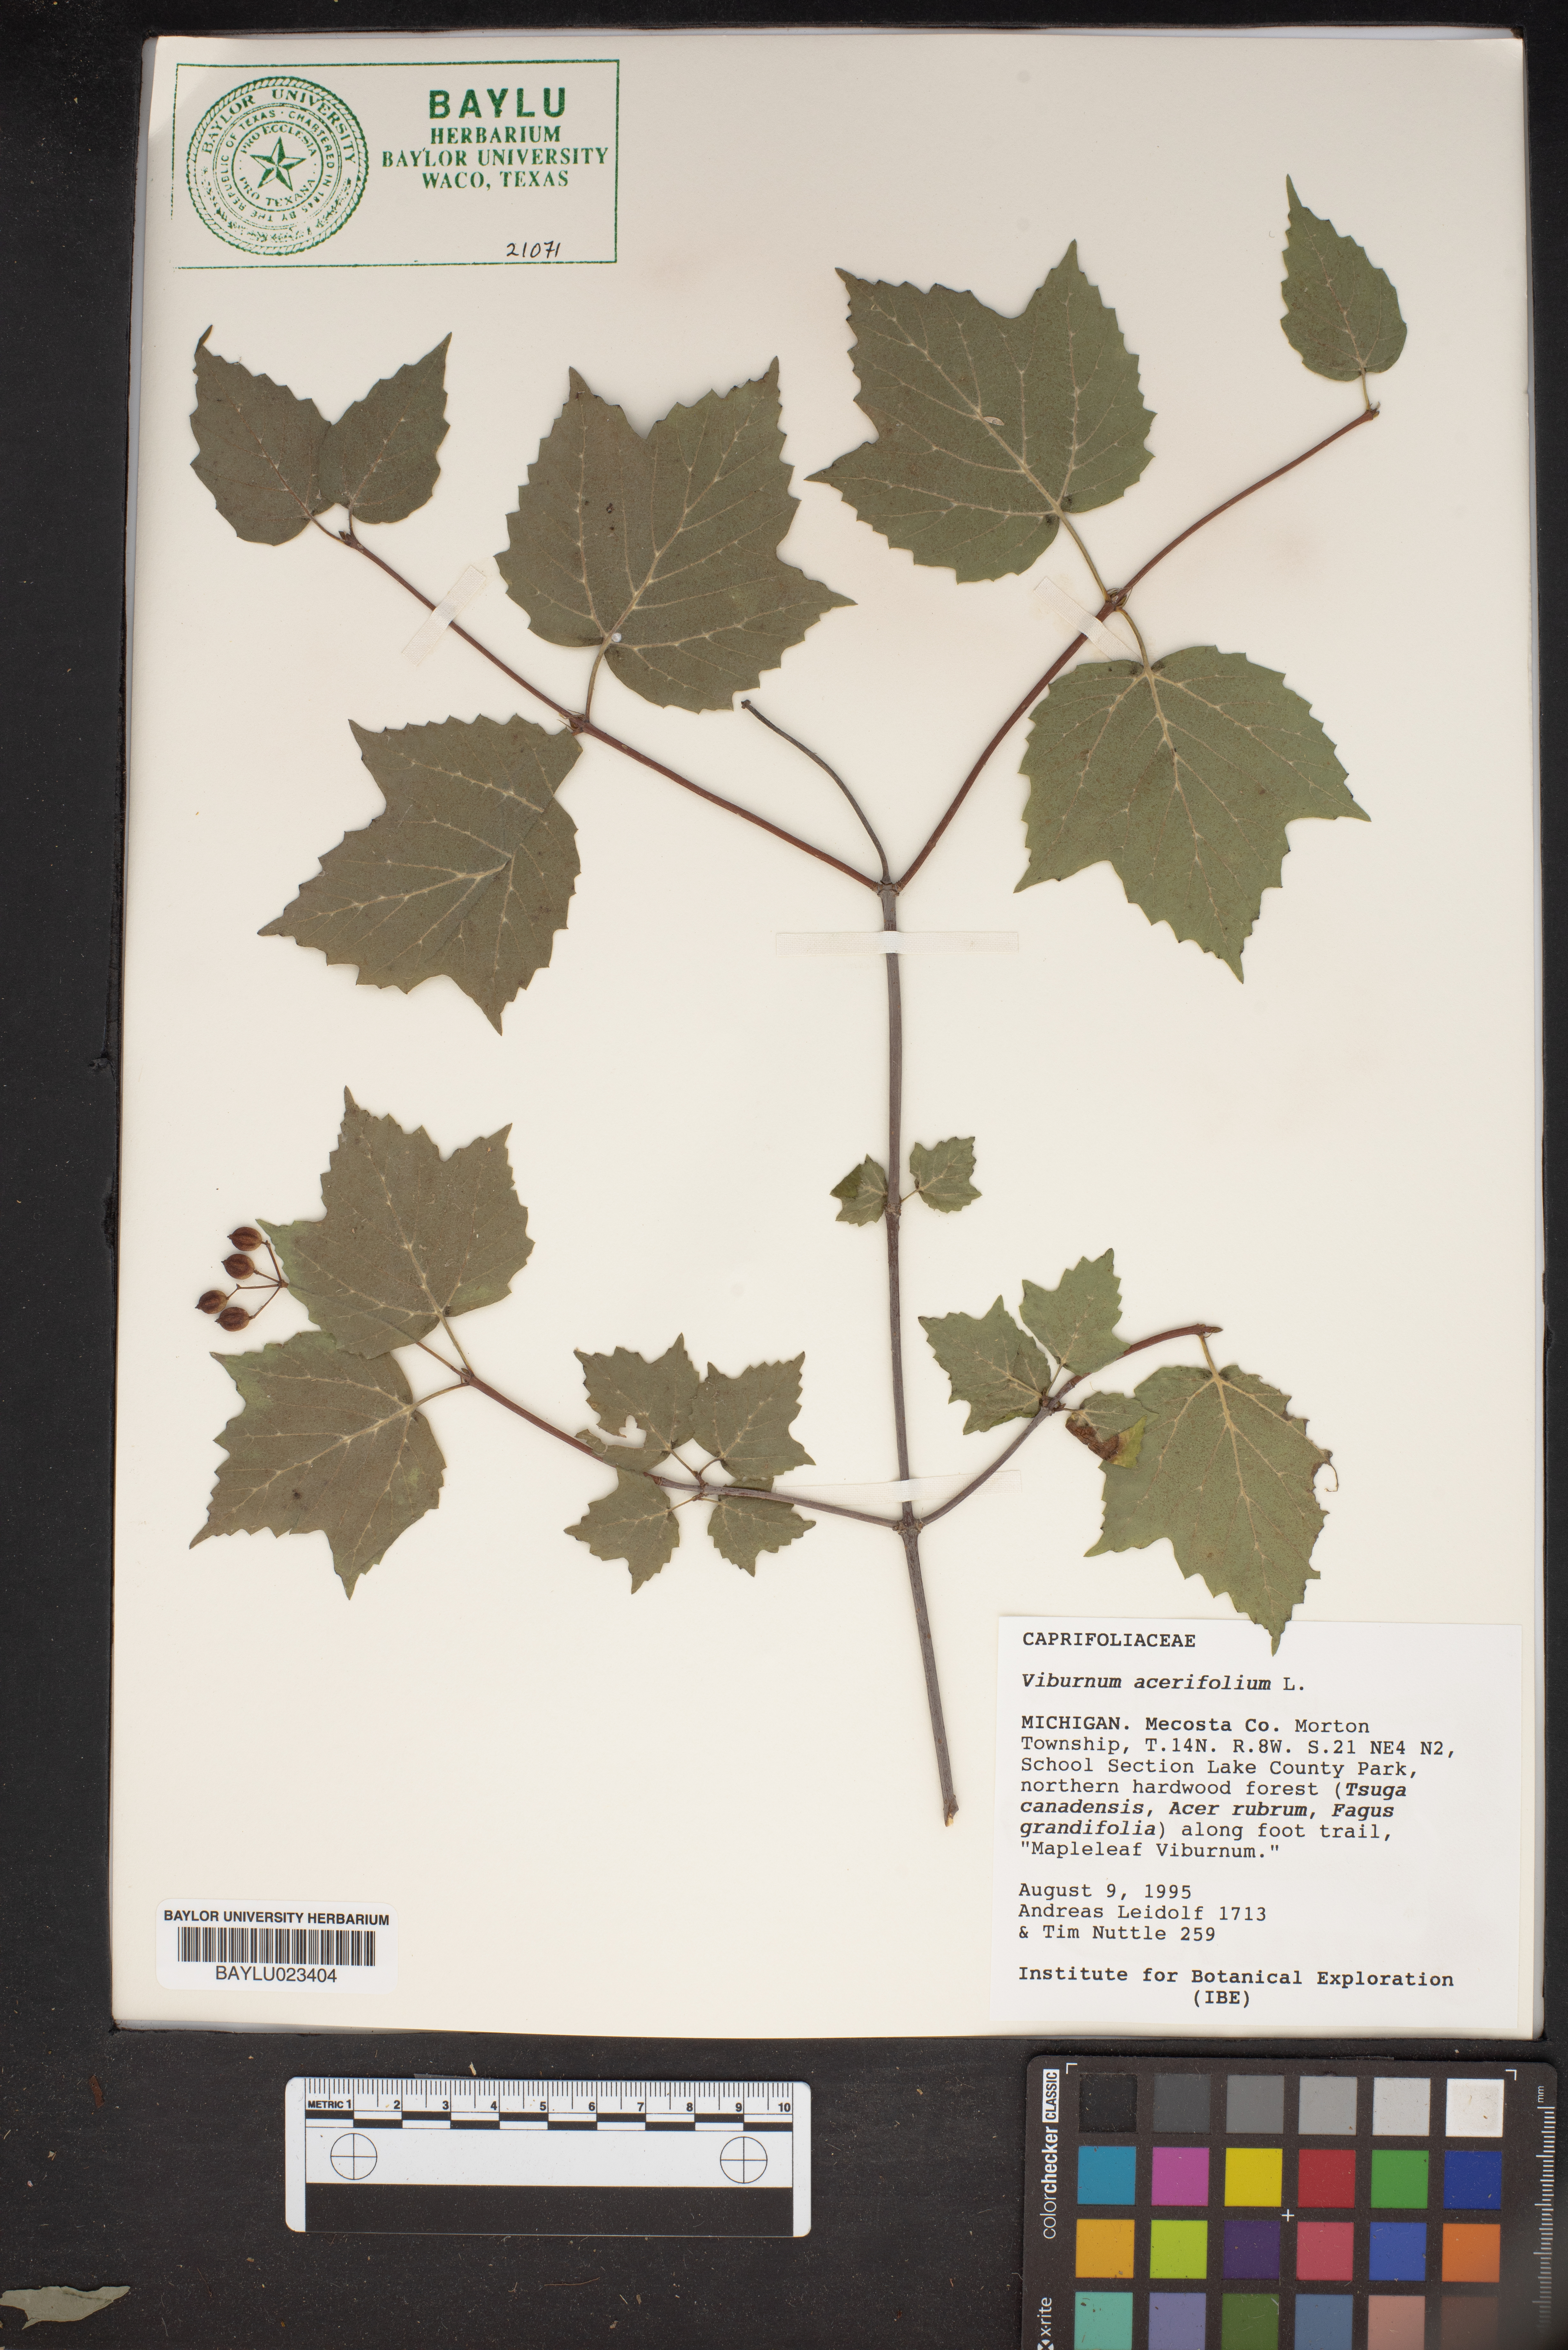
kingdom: Plantae
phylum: Tracheophyta
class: Magnoliopsida
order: Dipsacales
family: Viburnaceae
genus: Viburnum
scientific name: Viburnum acerifolium
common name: Dockmackie
